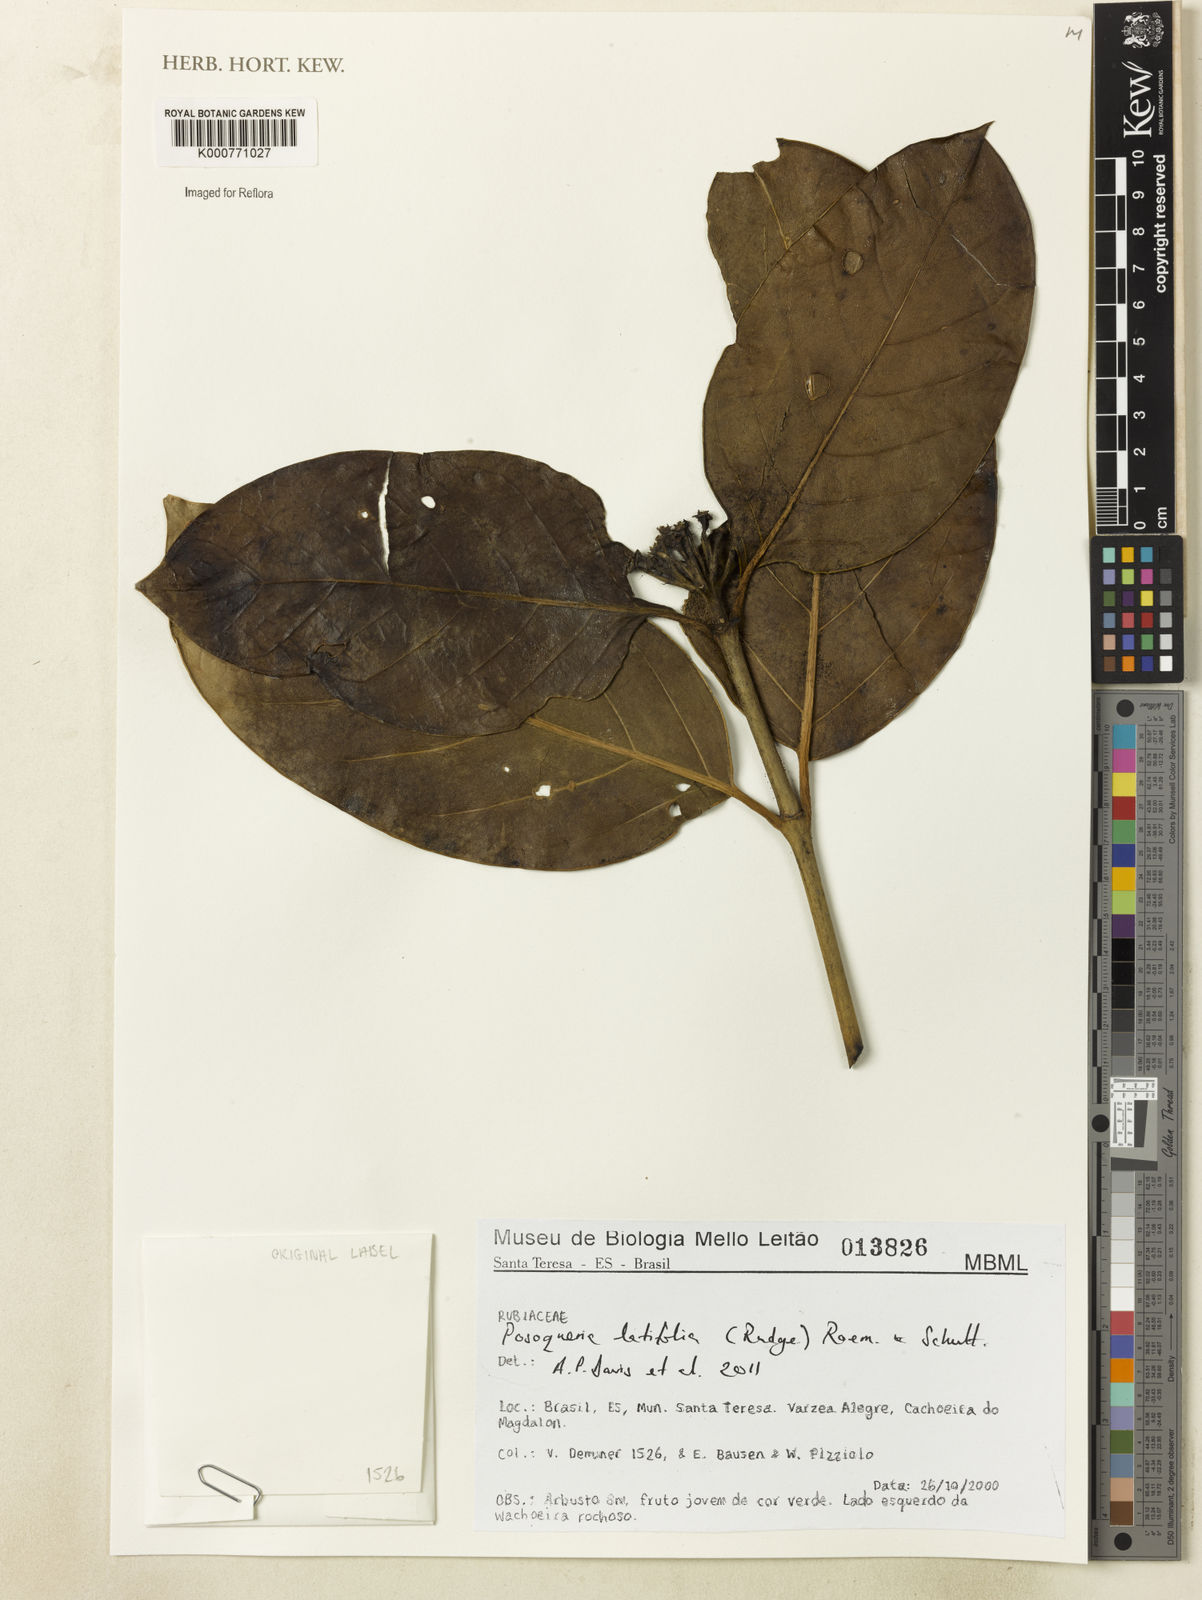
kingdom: Plantae
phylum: Tracheophyta
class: Magnoliopsida
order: Gentianales
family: Rubiaceae
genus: Posoqueria
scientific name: Posoqueria latifolia
